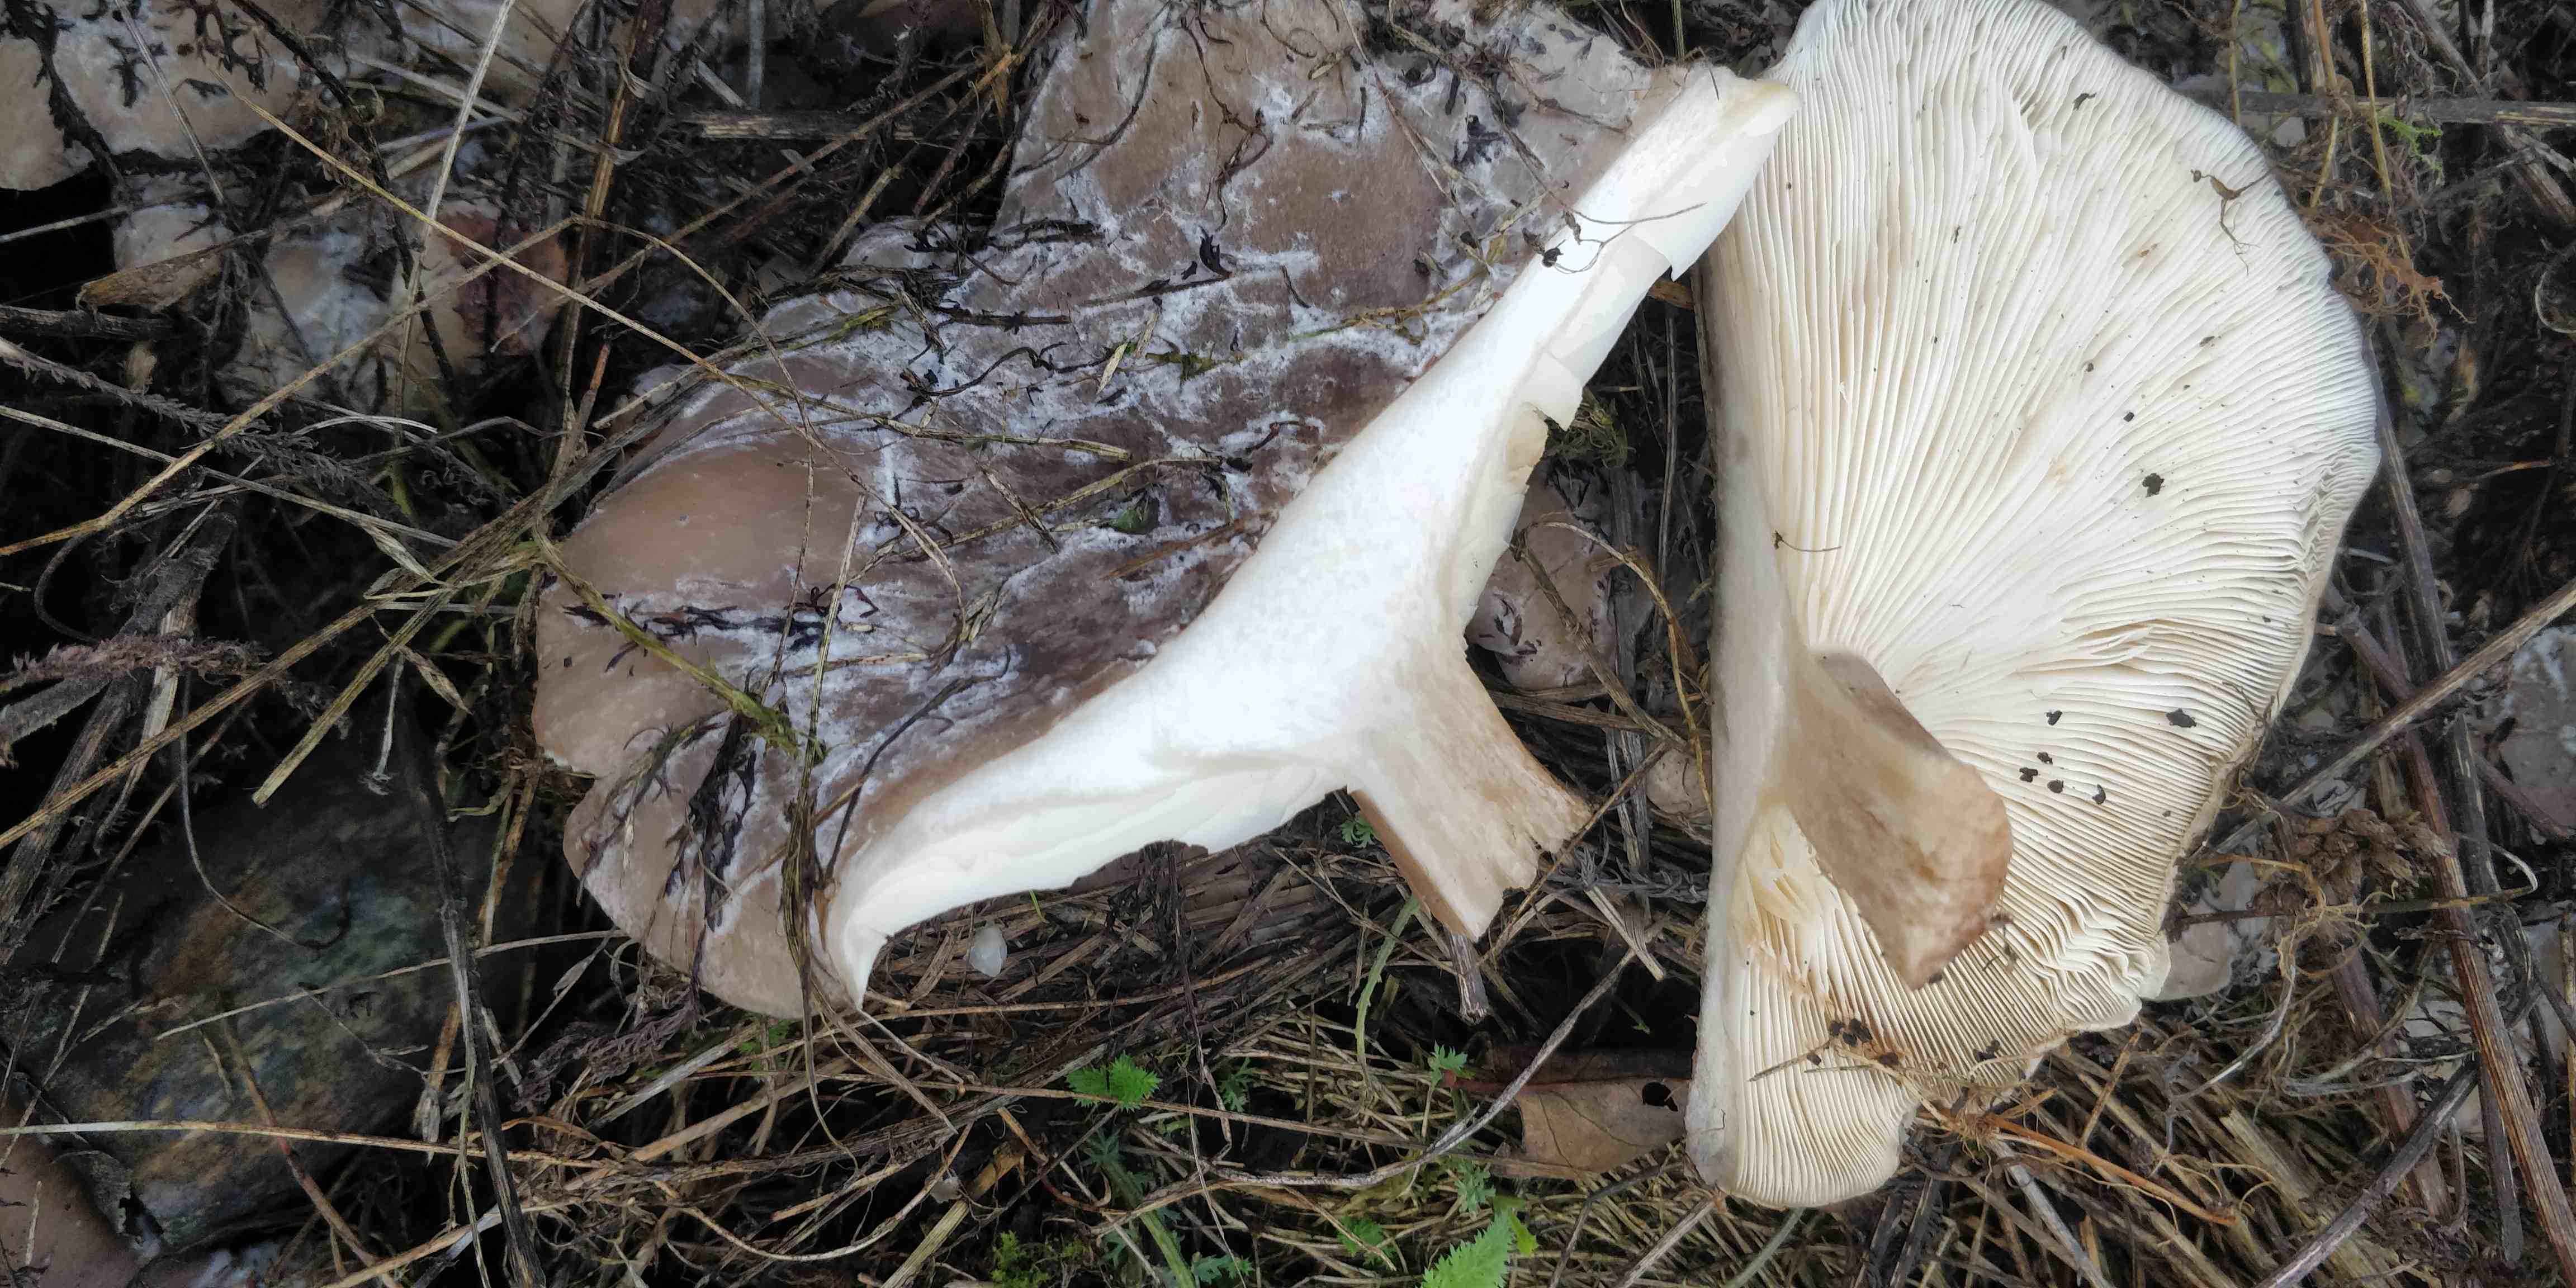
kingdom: Fungi
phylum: Basidiomycota
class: Agaricomycetes
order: Agaricales
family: Tricholomataceae
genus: Clitocybe
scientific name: Clitocybe nebularis
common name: tåge-tragthat
